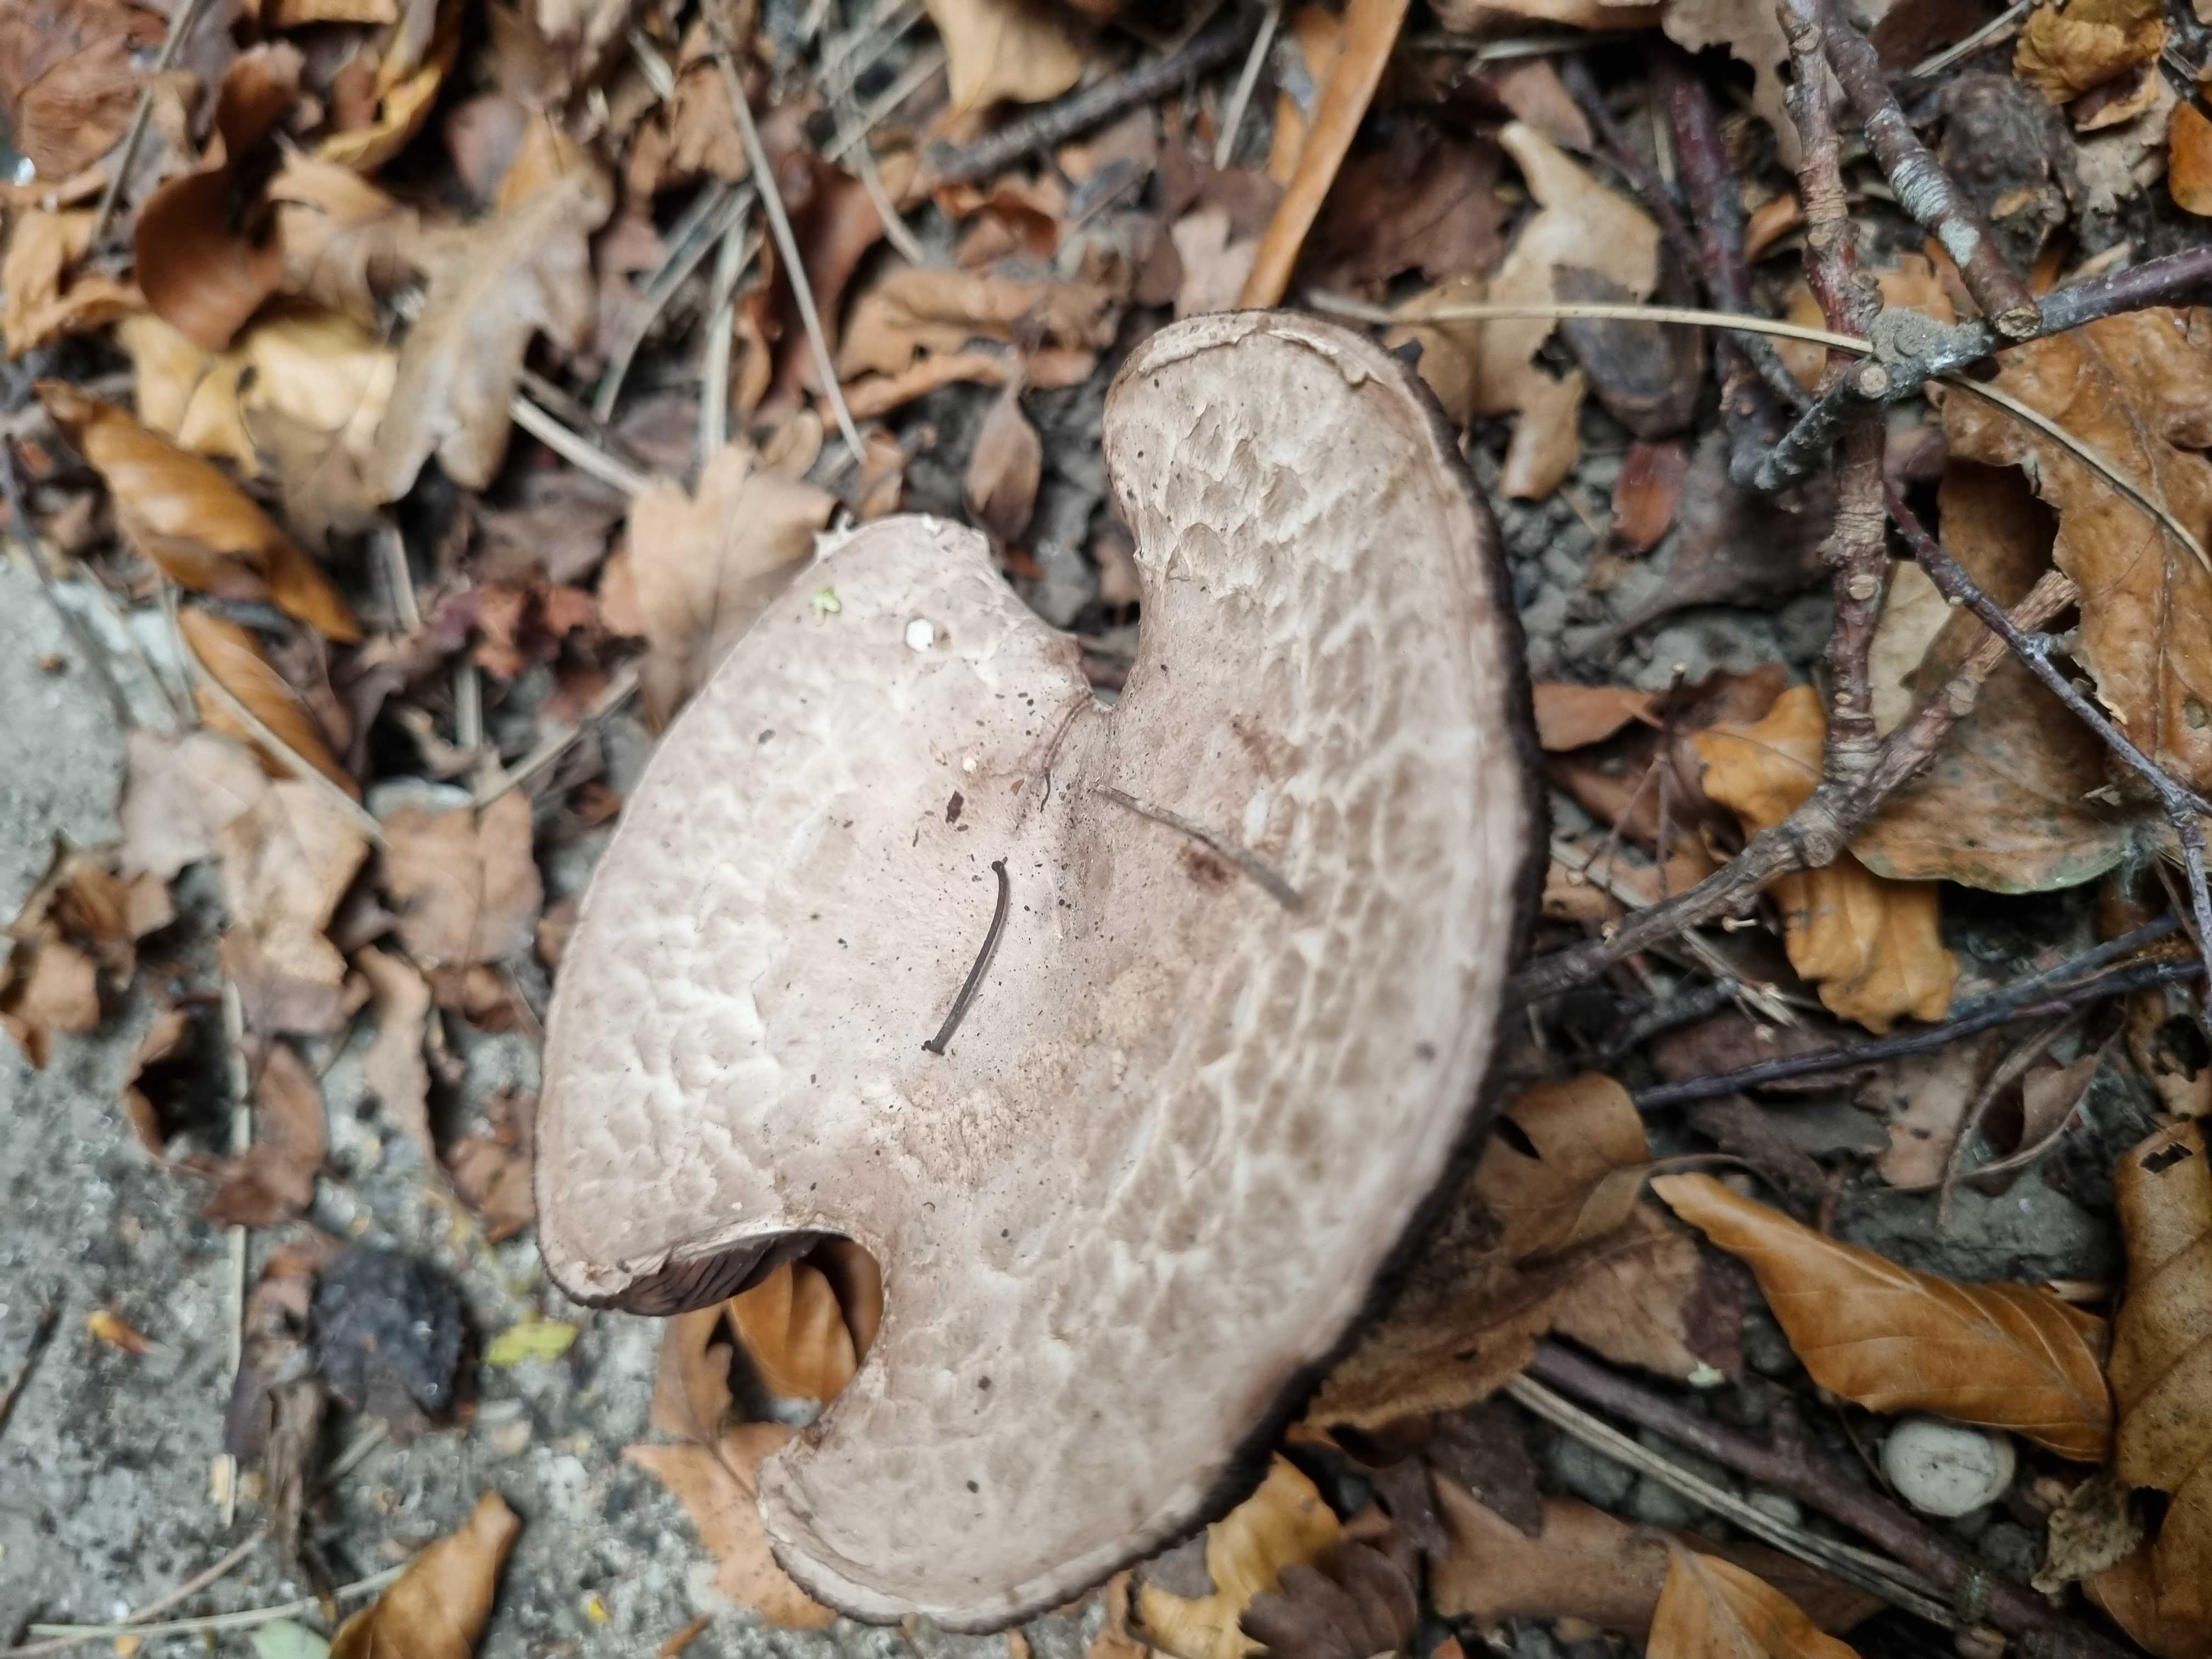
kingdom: Fungi
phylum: Basidiomycota
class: Agaricomycetes
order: Agaricales
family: Agaricaceae
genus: Agaricus
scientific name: Agaricus
